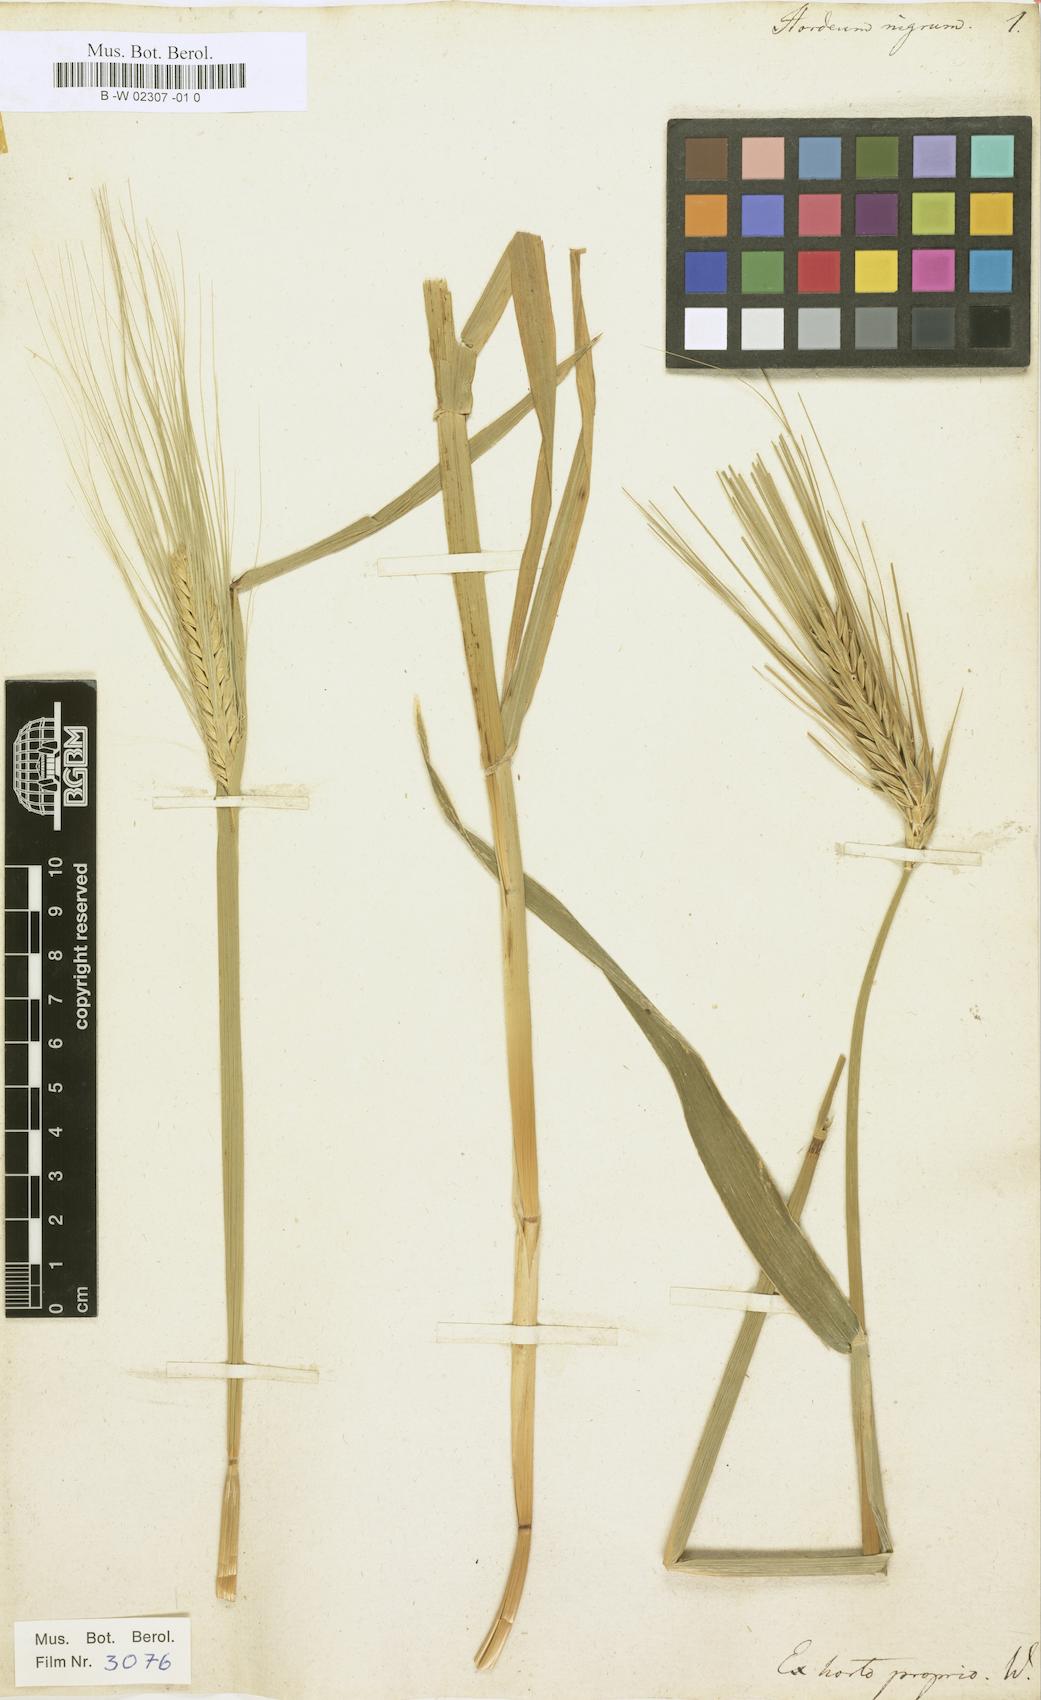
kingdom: Plantae
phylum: Tracheophyta
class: Liliopsida
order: Poales
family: Poaceae
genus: Hordeum
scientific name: Hordeum vulgare
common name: Common barley
